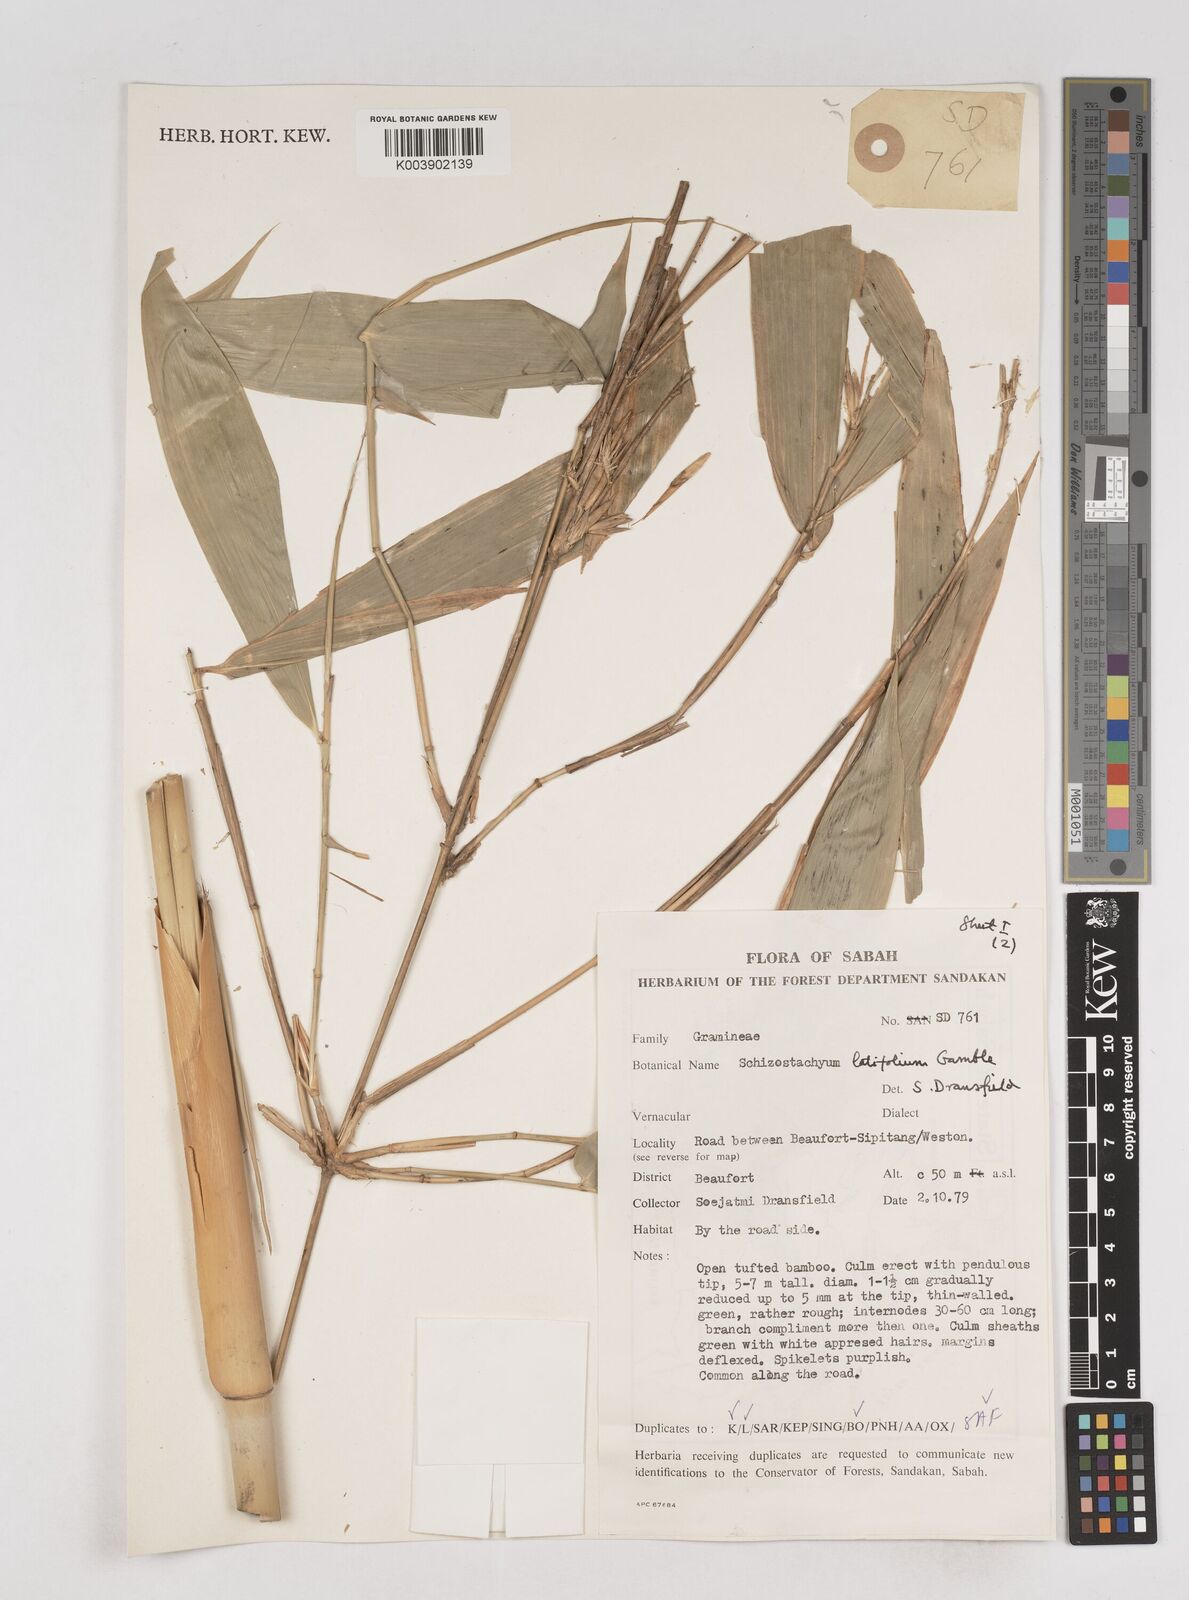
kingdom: Plantae
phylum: Tracheophyta
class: Liliopsida
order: Poales
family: Poaceae
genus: Schizostachyum
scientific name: Schizostachyum
